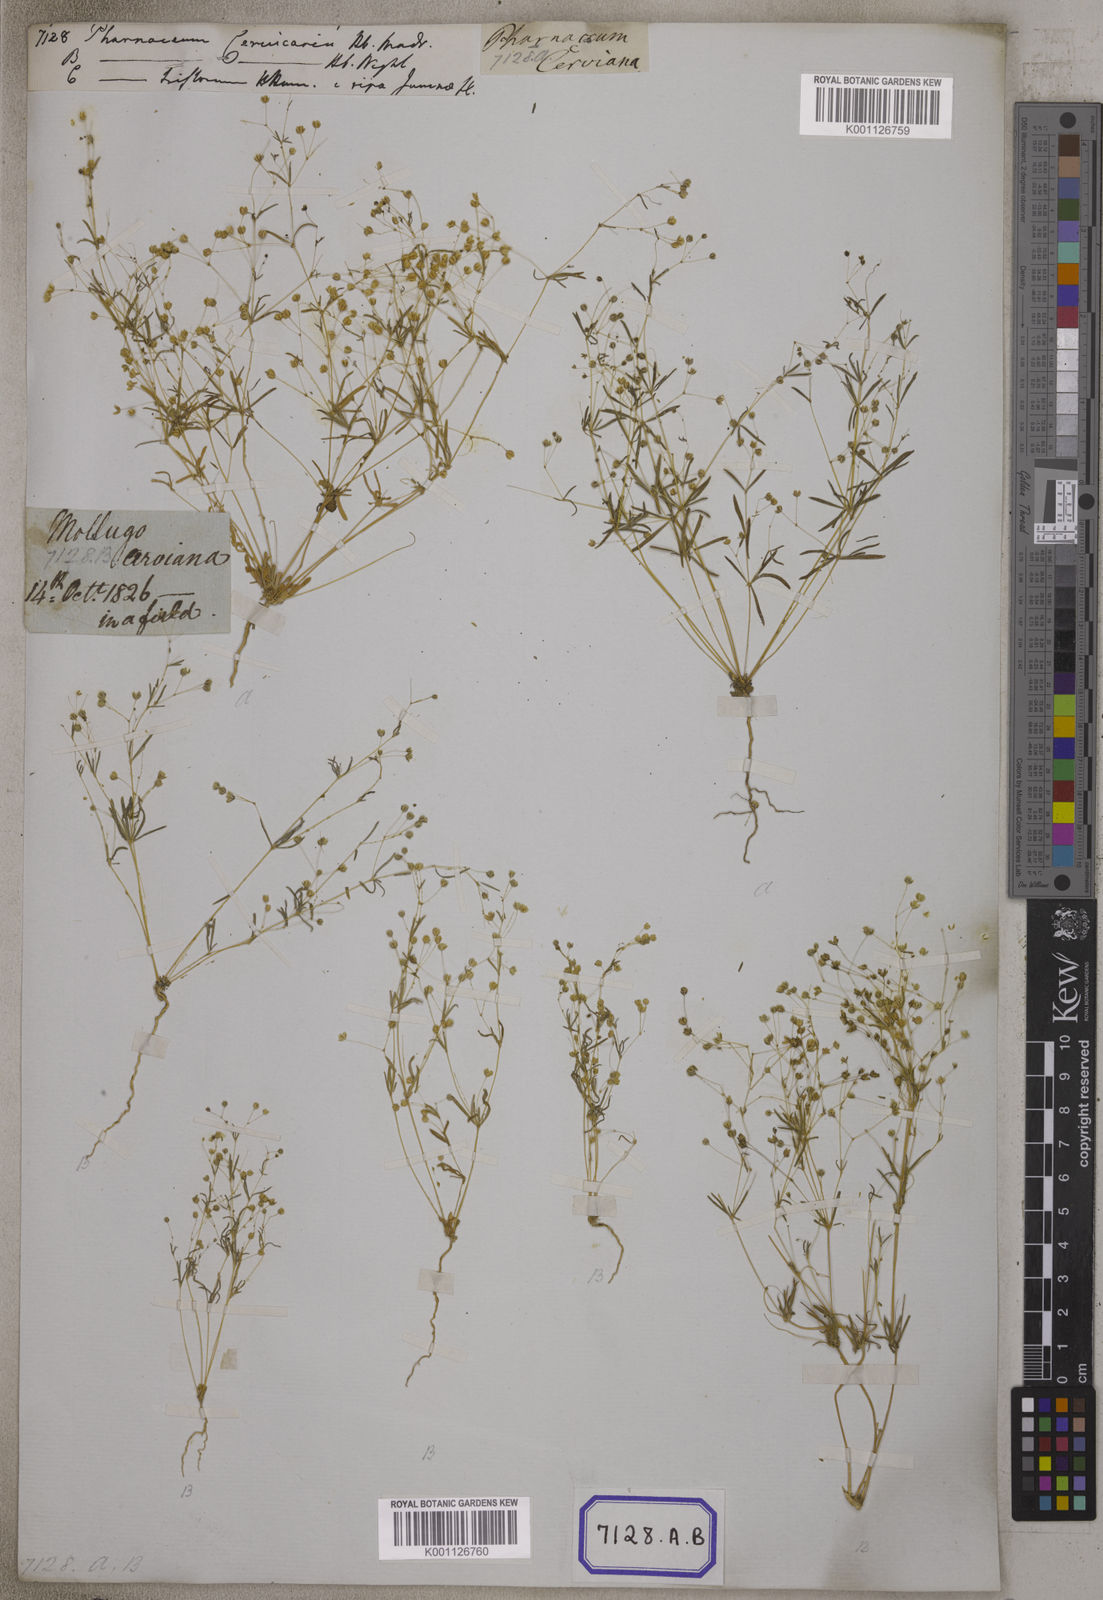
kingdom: Plantae
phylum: Tracheophyta
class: Magnoliopsida
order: Caryophyllales
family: Molluginaceae
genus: Pharnaceum
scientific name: Pharnaceum
